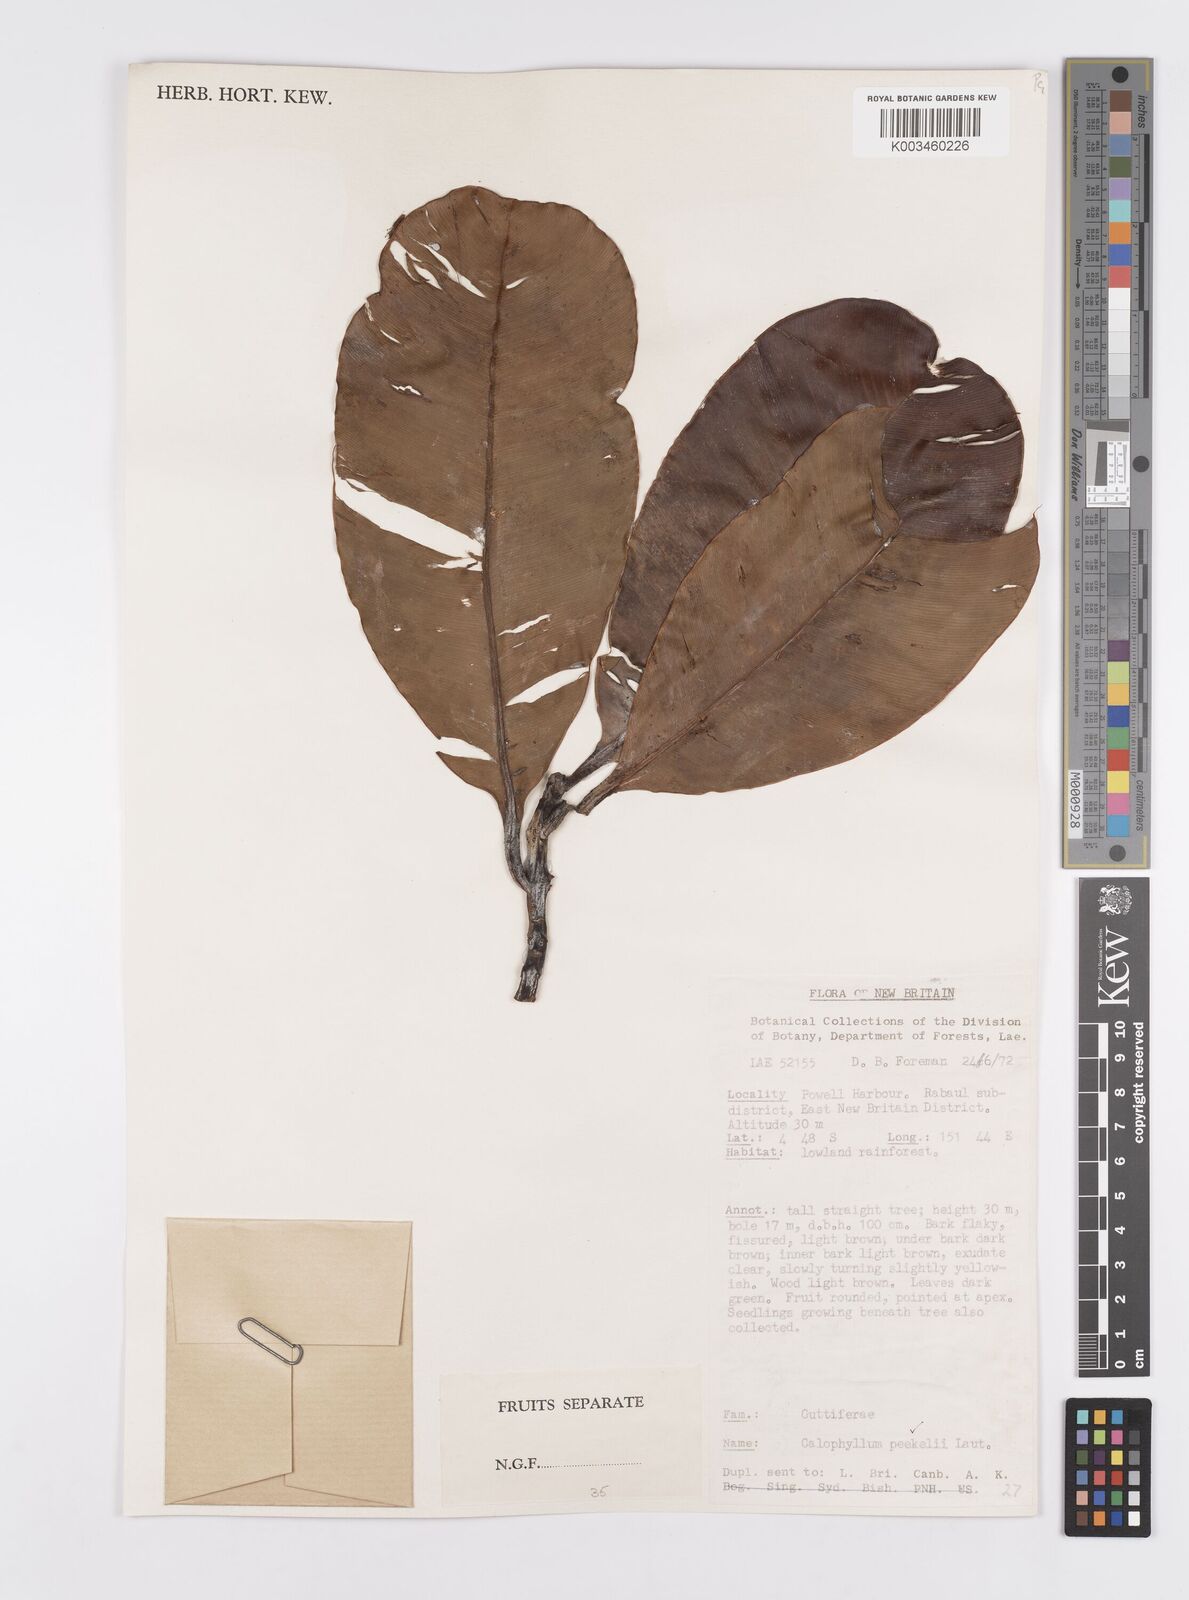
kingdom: Plantae
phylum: Tracheophyta
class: Magnoliopsida
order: Malpighiales
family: Calophyllaceae
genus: Calophyllum
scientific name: Calophyllum peekelii
